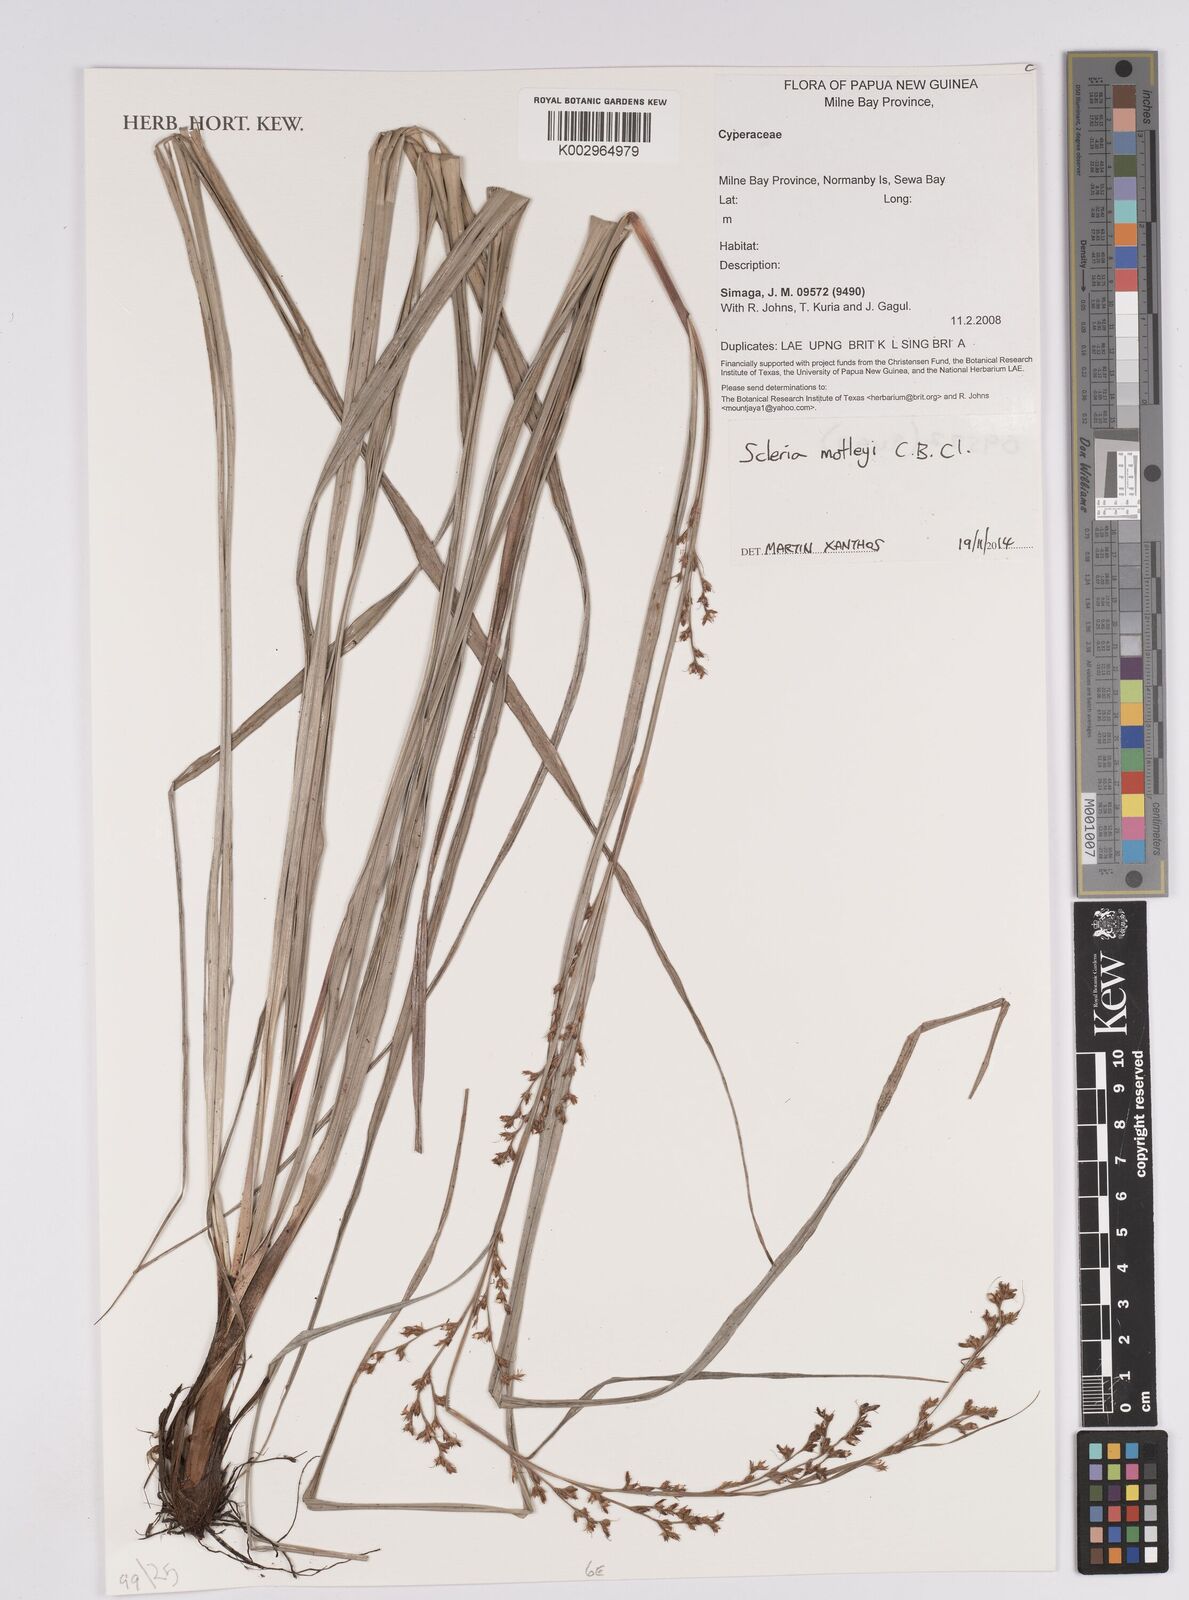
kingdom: Plantae
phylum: Tracheophyta
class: Liliopsida
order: Poales
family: Cyperaceae
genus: Scleria
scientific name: Scleria
